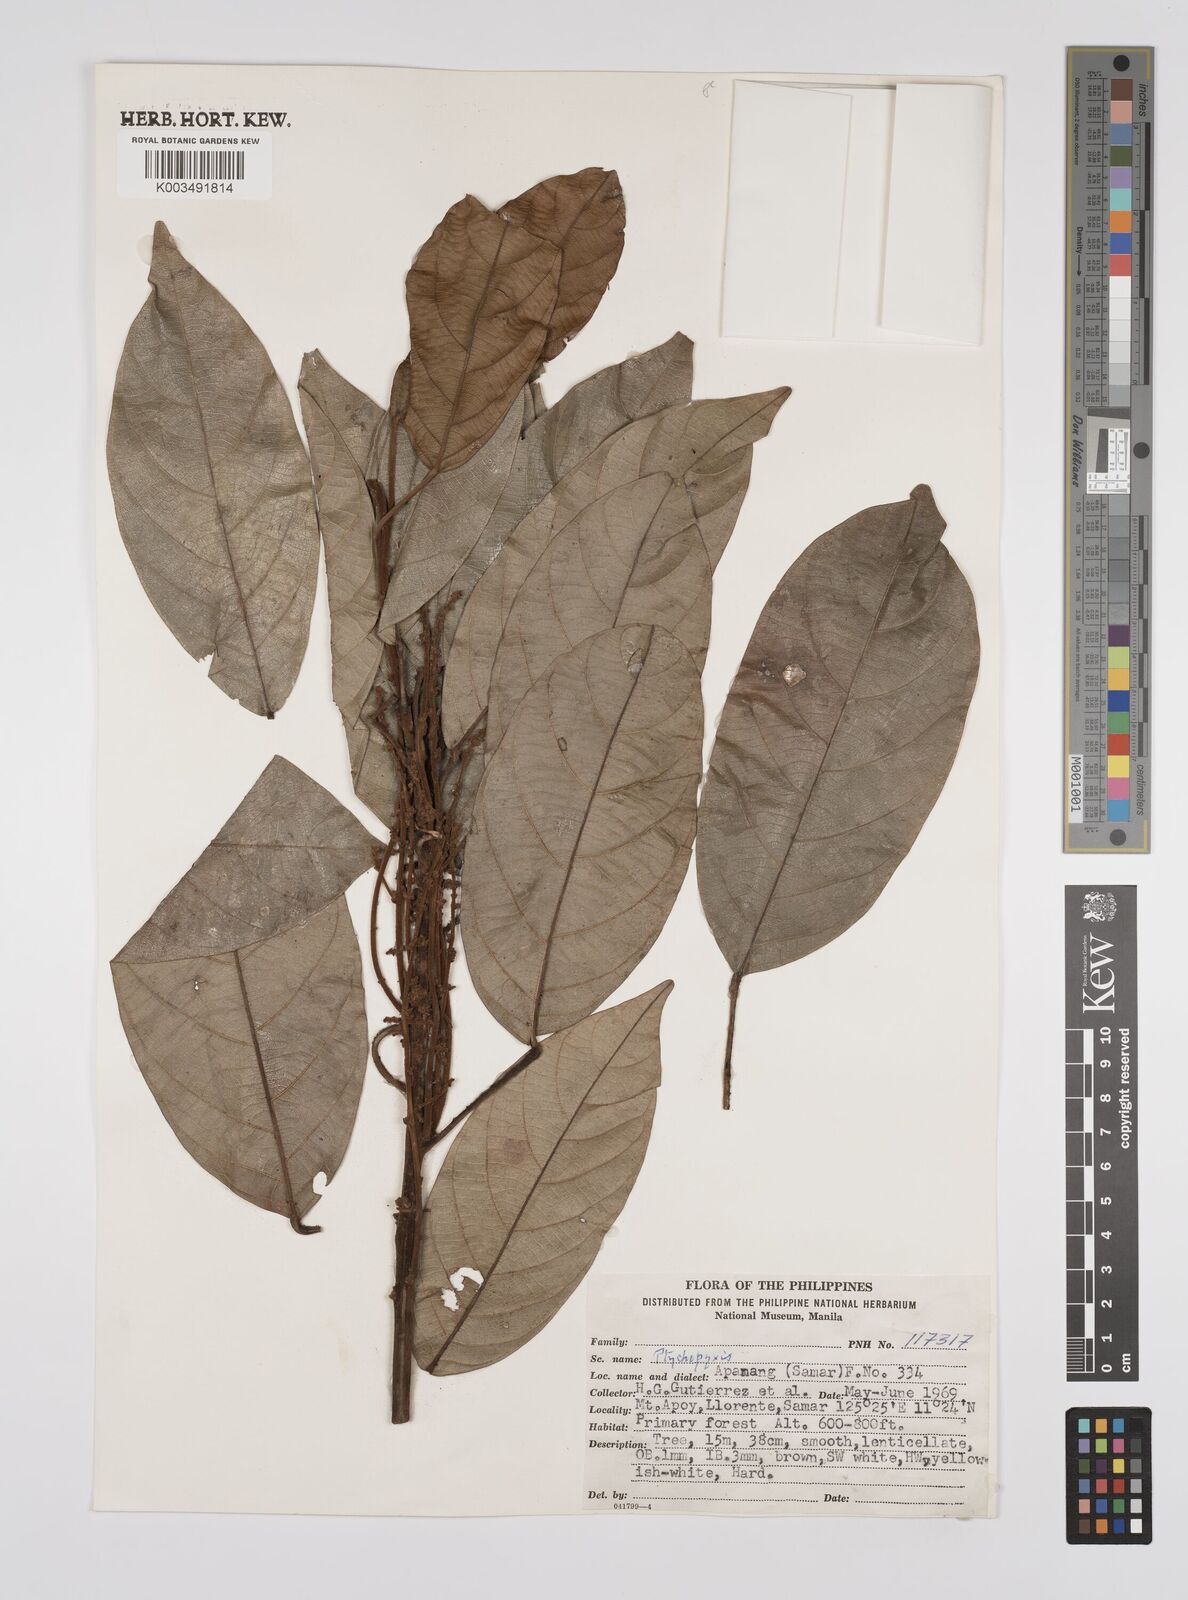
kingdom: Plantae
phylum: Tracheophyta
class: Magnoliopsida
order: Malpighiales
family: Euphorbiaceae
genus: Ptychopyxis
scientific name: Ptychopyxis bacciformis
